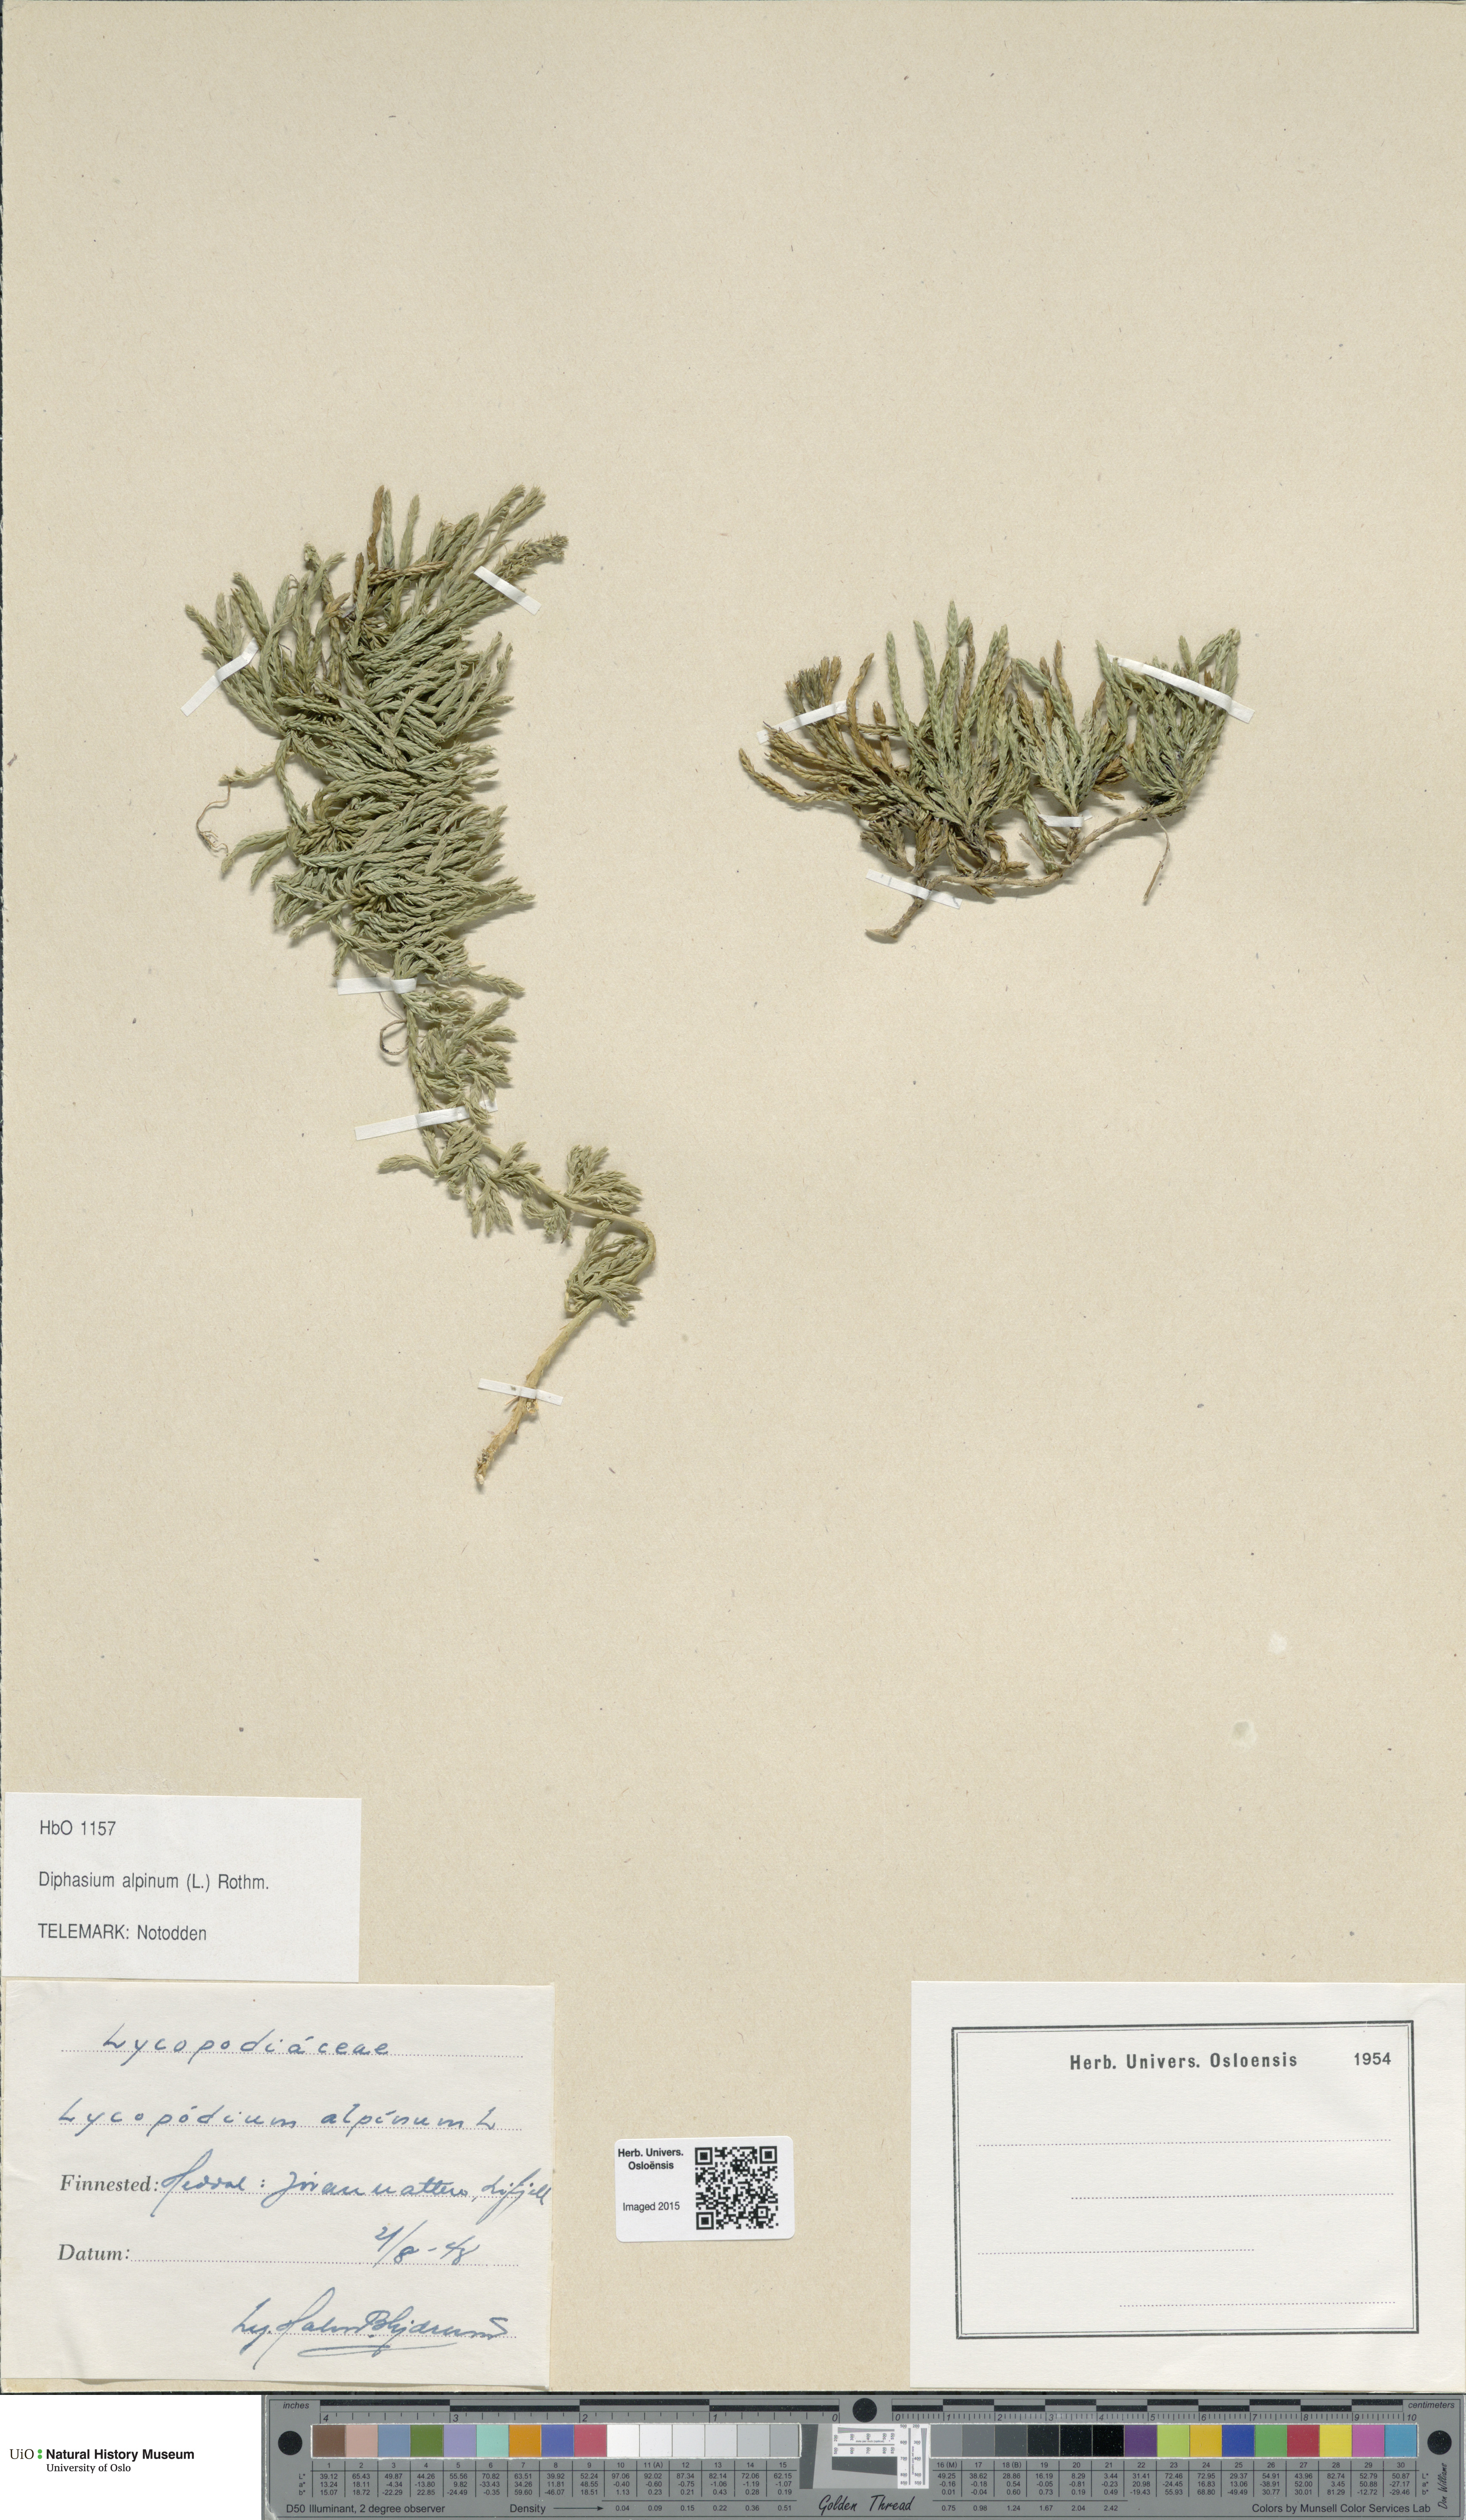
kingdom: Plantae
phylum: Tracheophyta
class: Lycopodiopsida
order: Lycopodiales
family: Lycopodiaceae
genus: Diphasiastrum
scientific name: Diphasiastrum alpinum
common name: Alpine clubmoss
